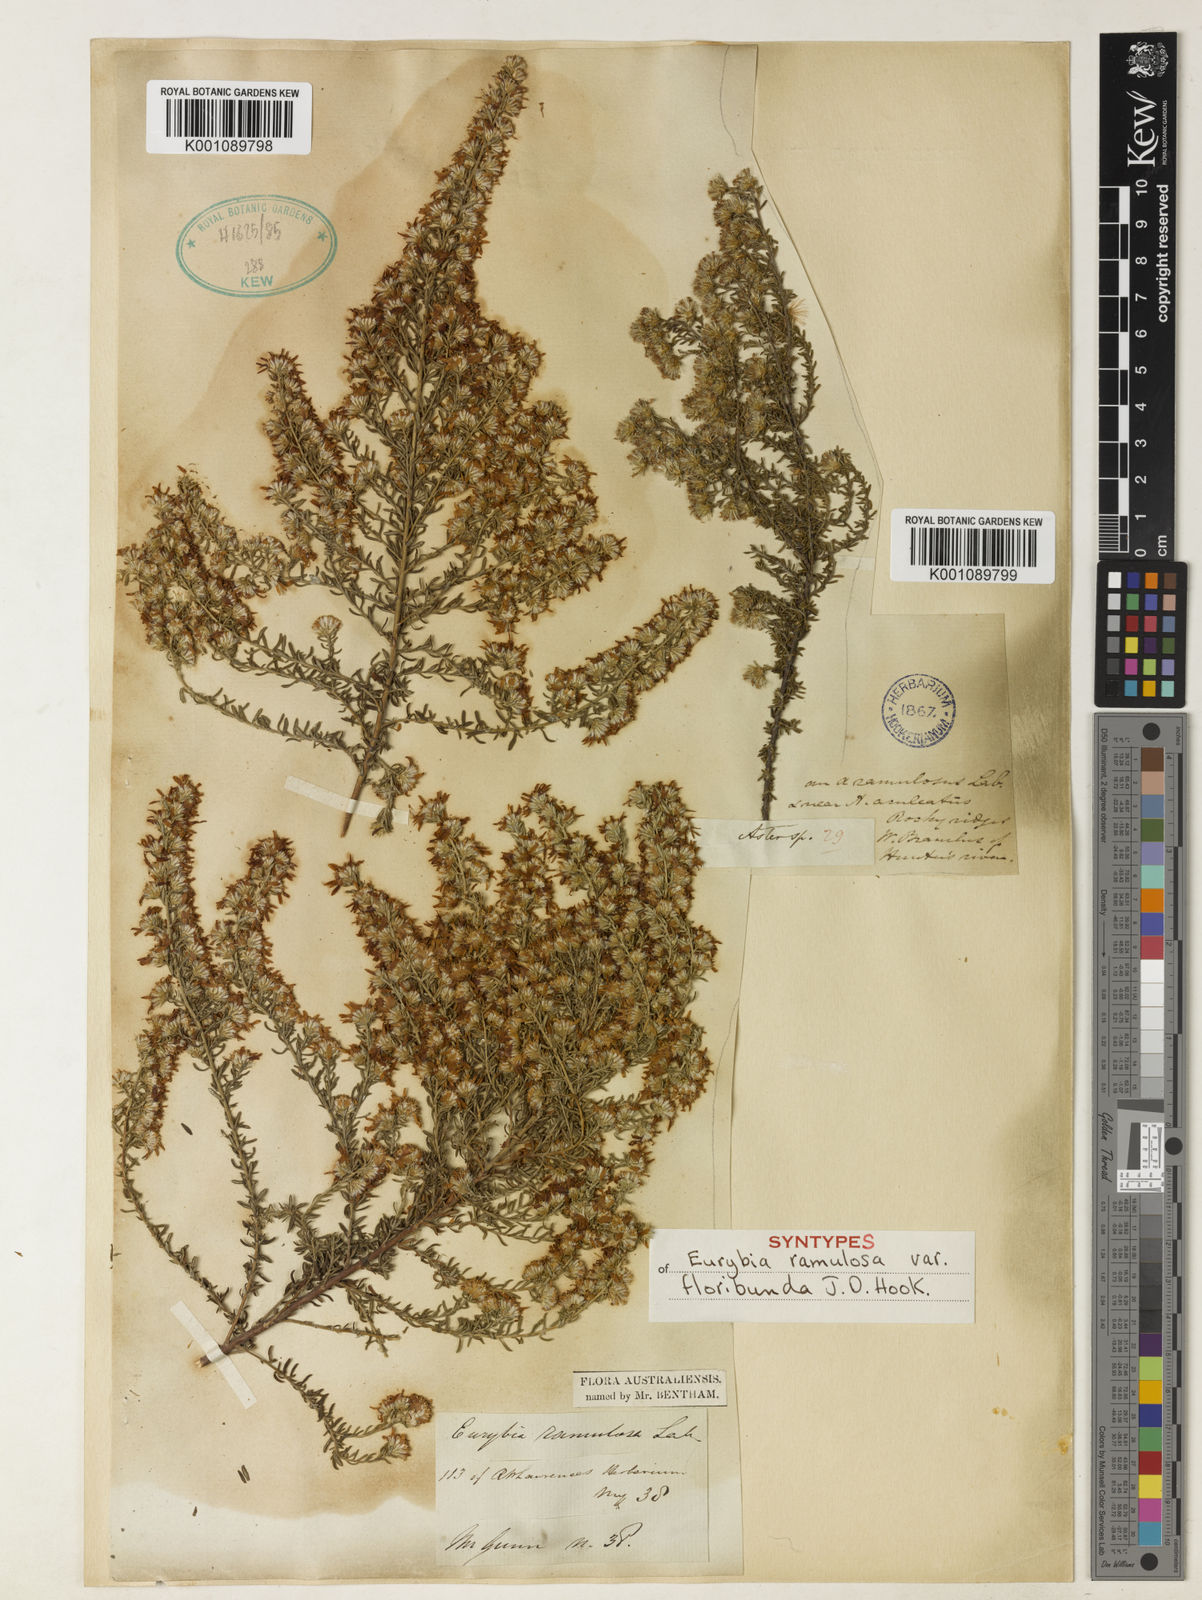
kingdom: Plantae
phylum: Tracheophyta
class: Magnoliopsida
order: Asterales
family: Asteraceae
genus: Olearia
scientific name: Olearia ramulosa
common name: Twiggy daisybush
